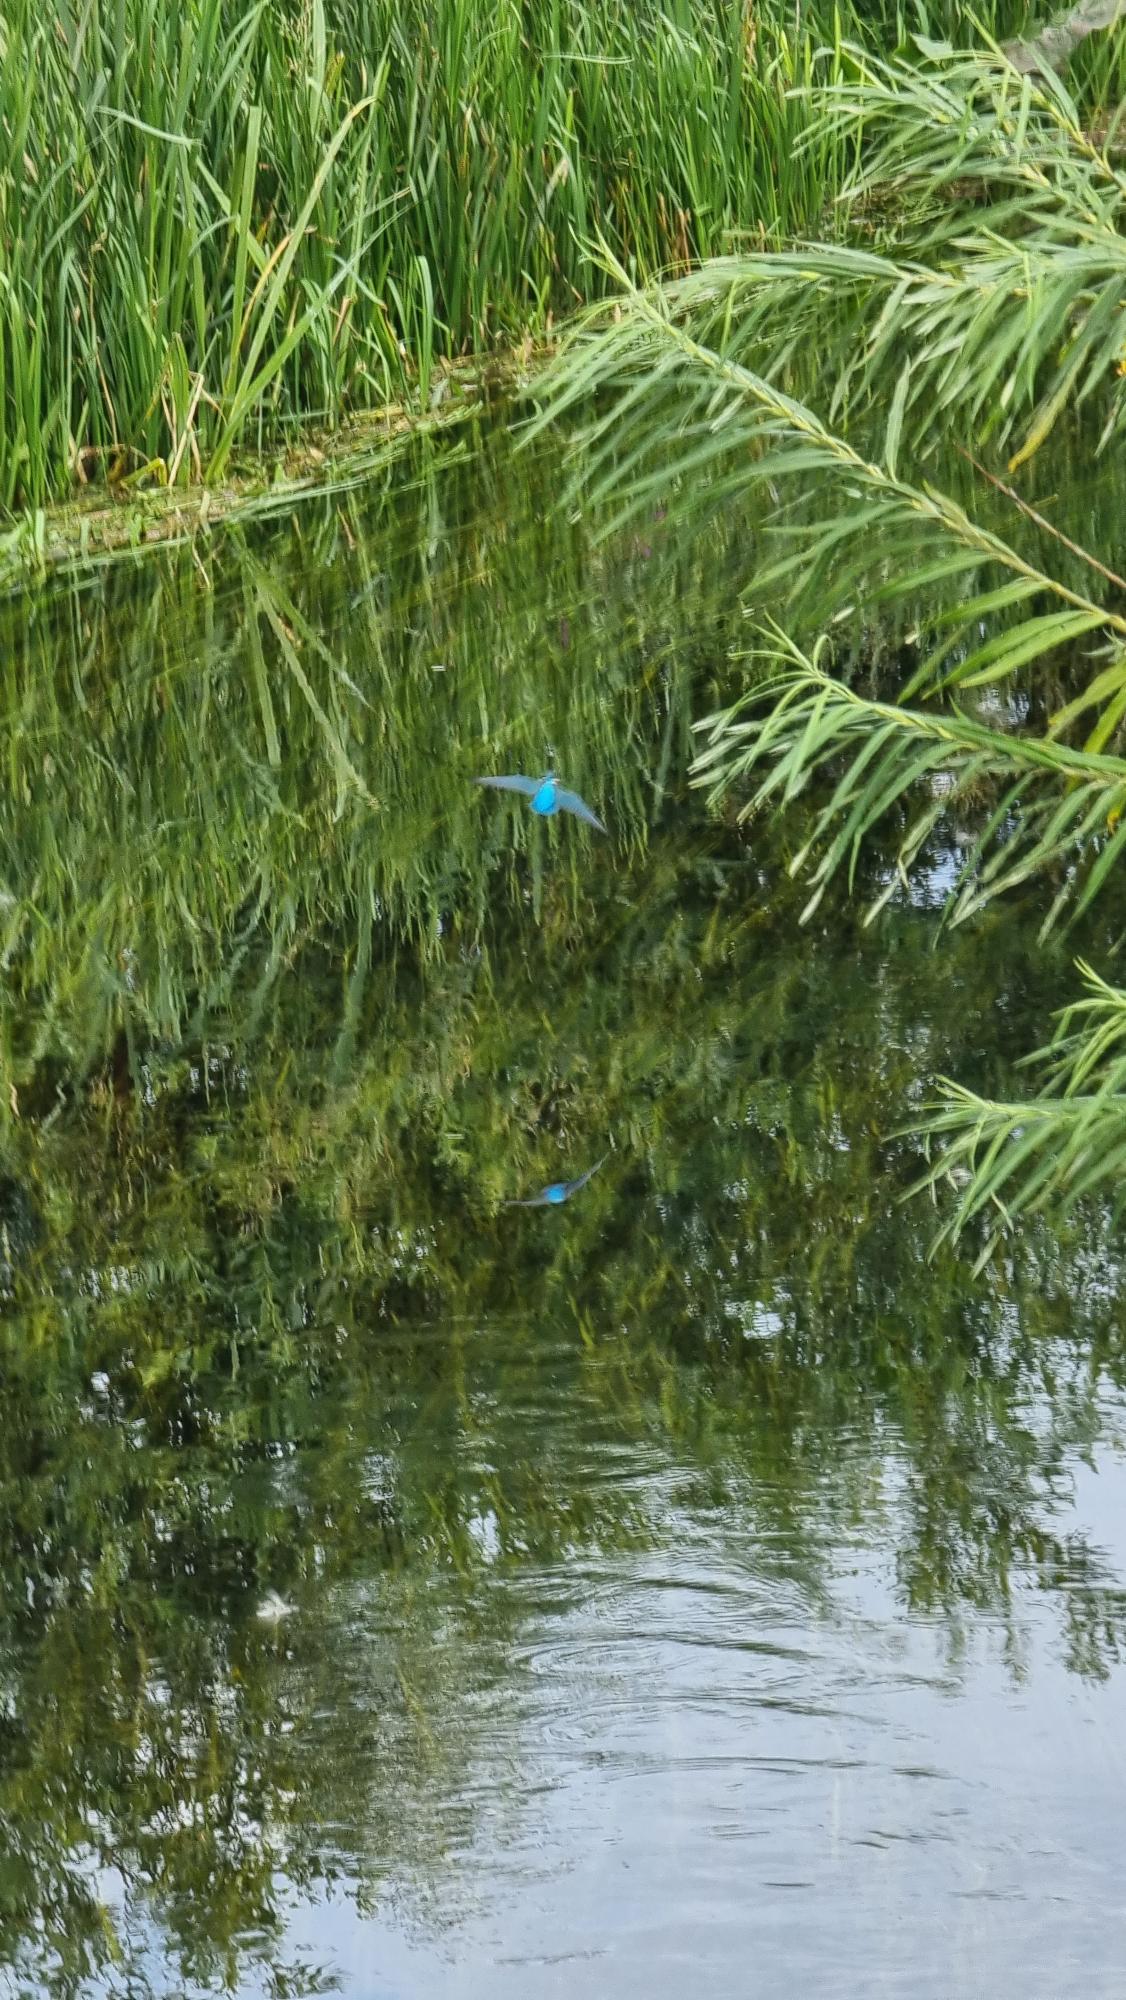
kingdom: Animalia
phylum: Chordata
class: Aves
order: Coraciiformes
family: Alcedinidae
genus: Alcedo
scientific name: Alcedo atthis
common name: Isfugl
